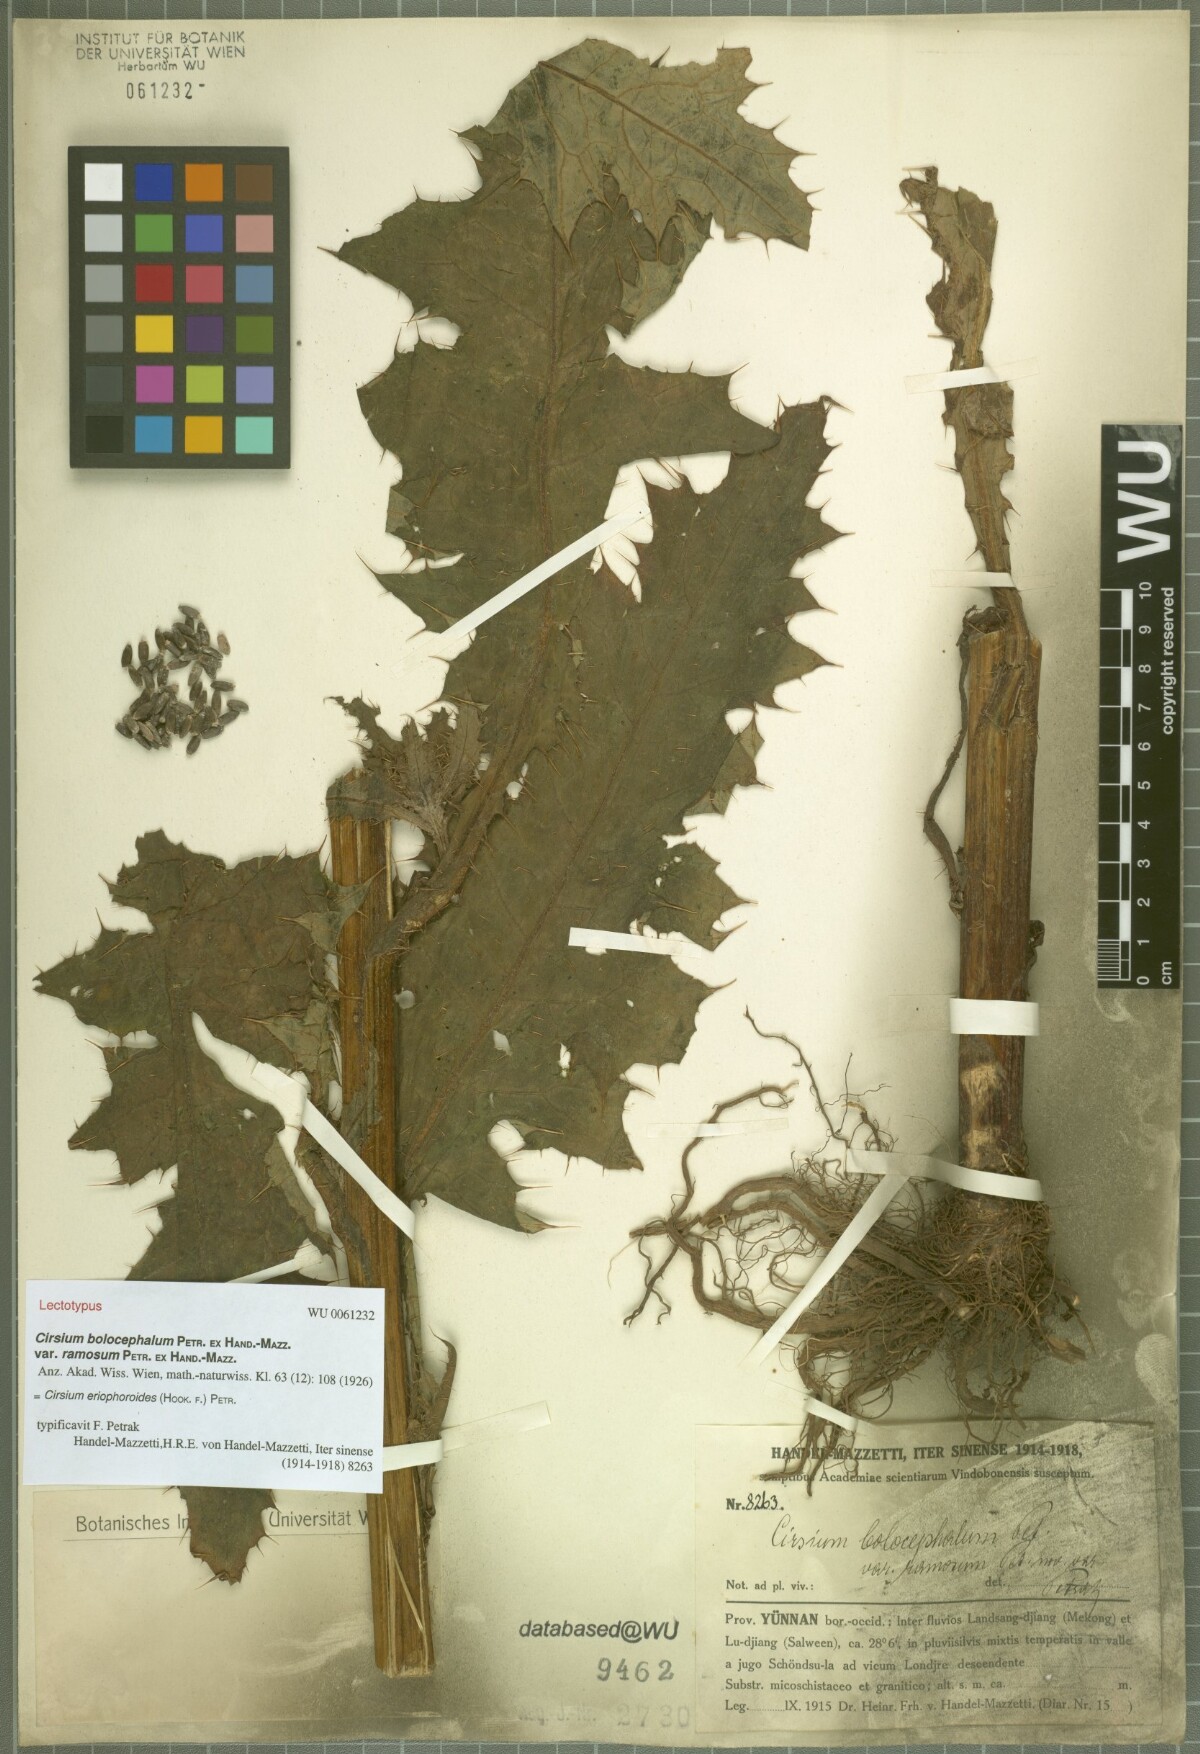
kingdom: Plantae
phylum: Tracheophyta
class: Magnoliopsida
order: Asterales
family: Asteraceae
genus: Cirsium
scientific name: Cirsium eriophoroides
